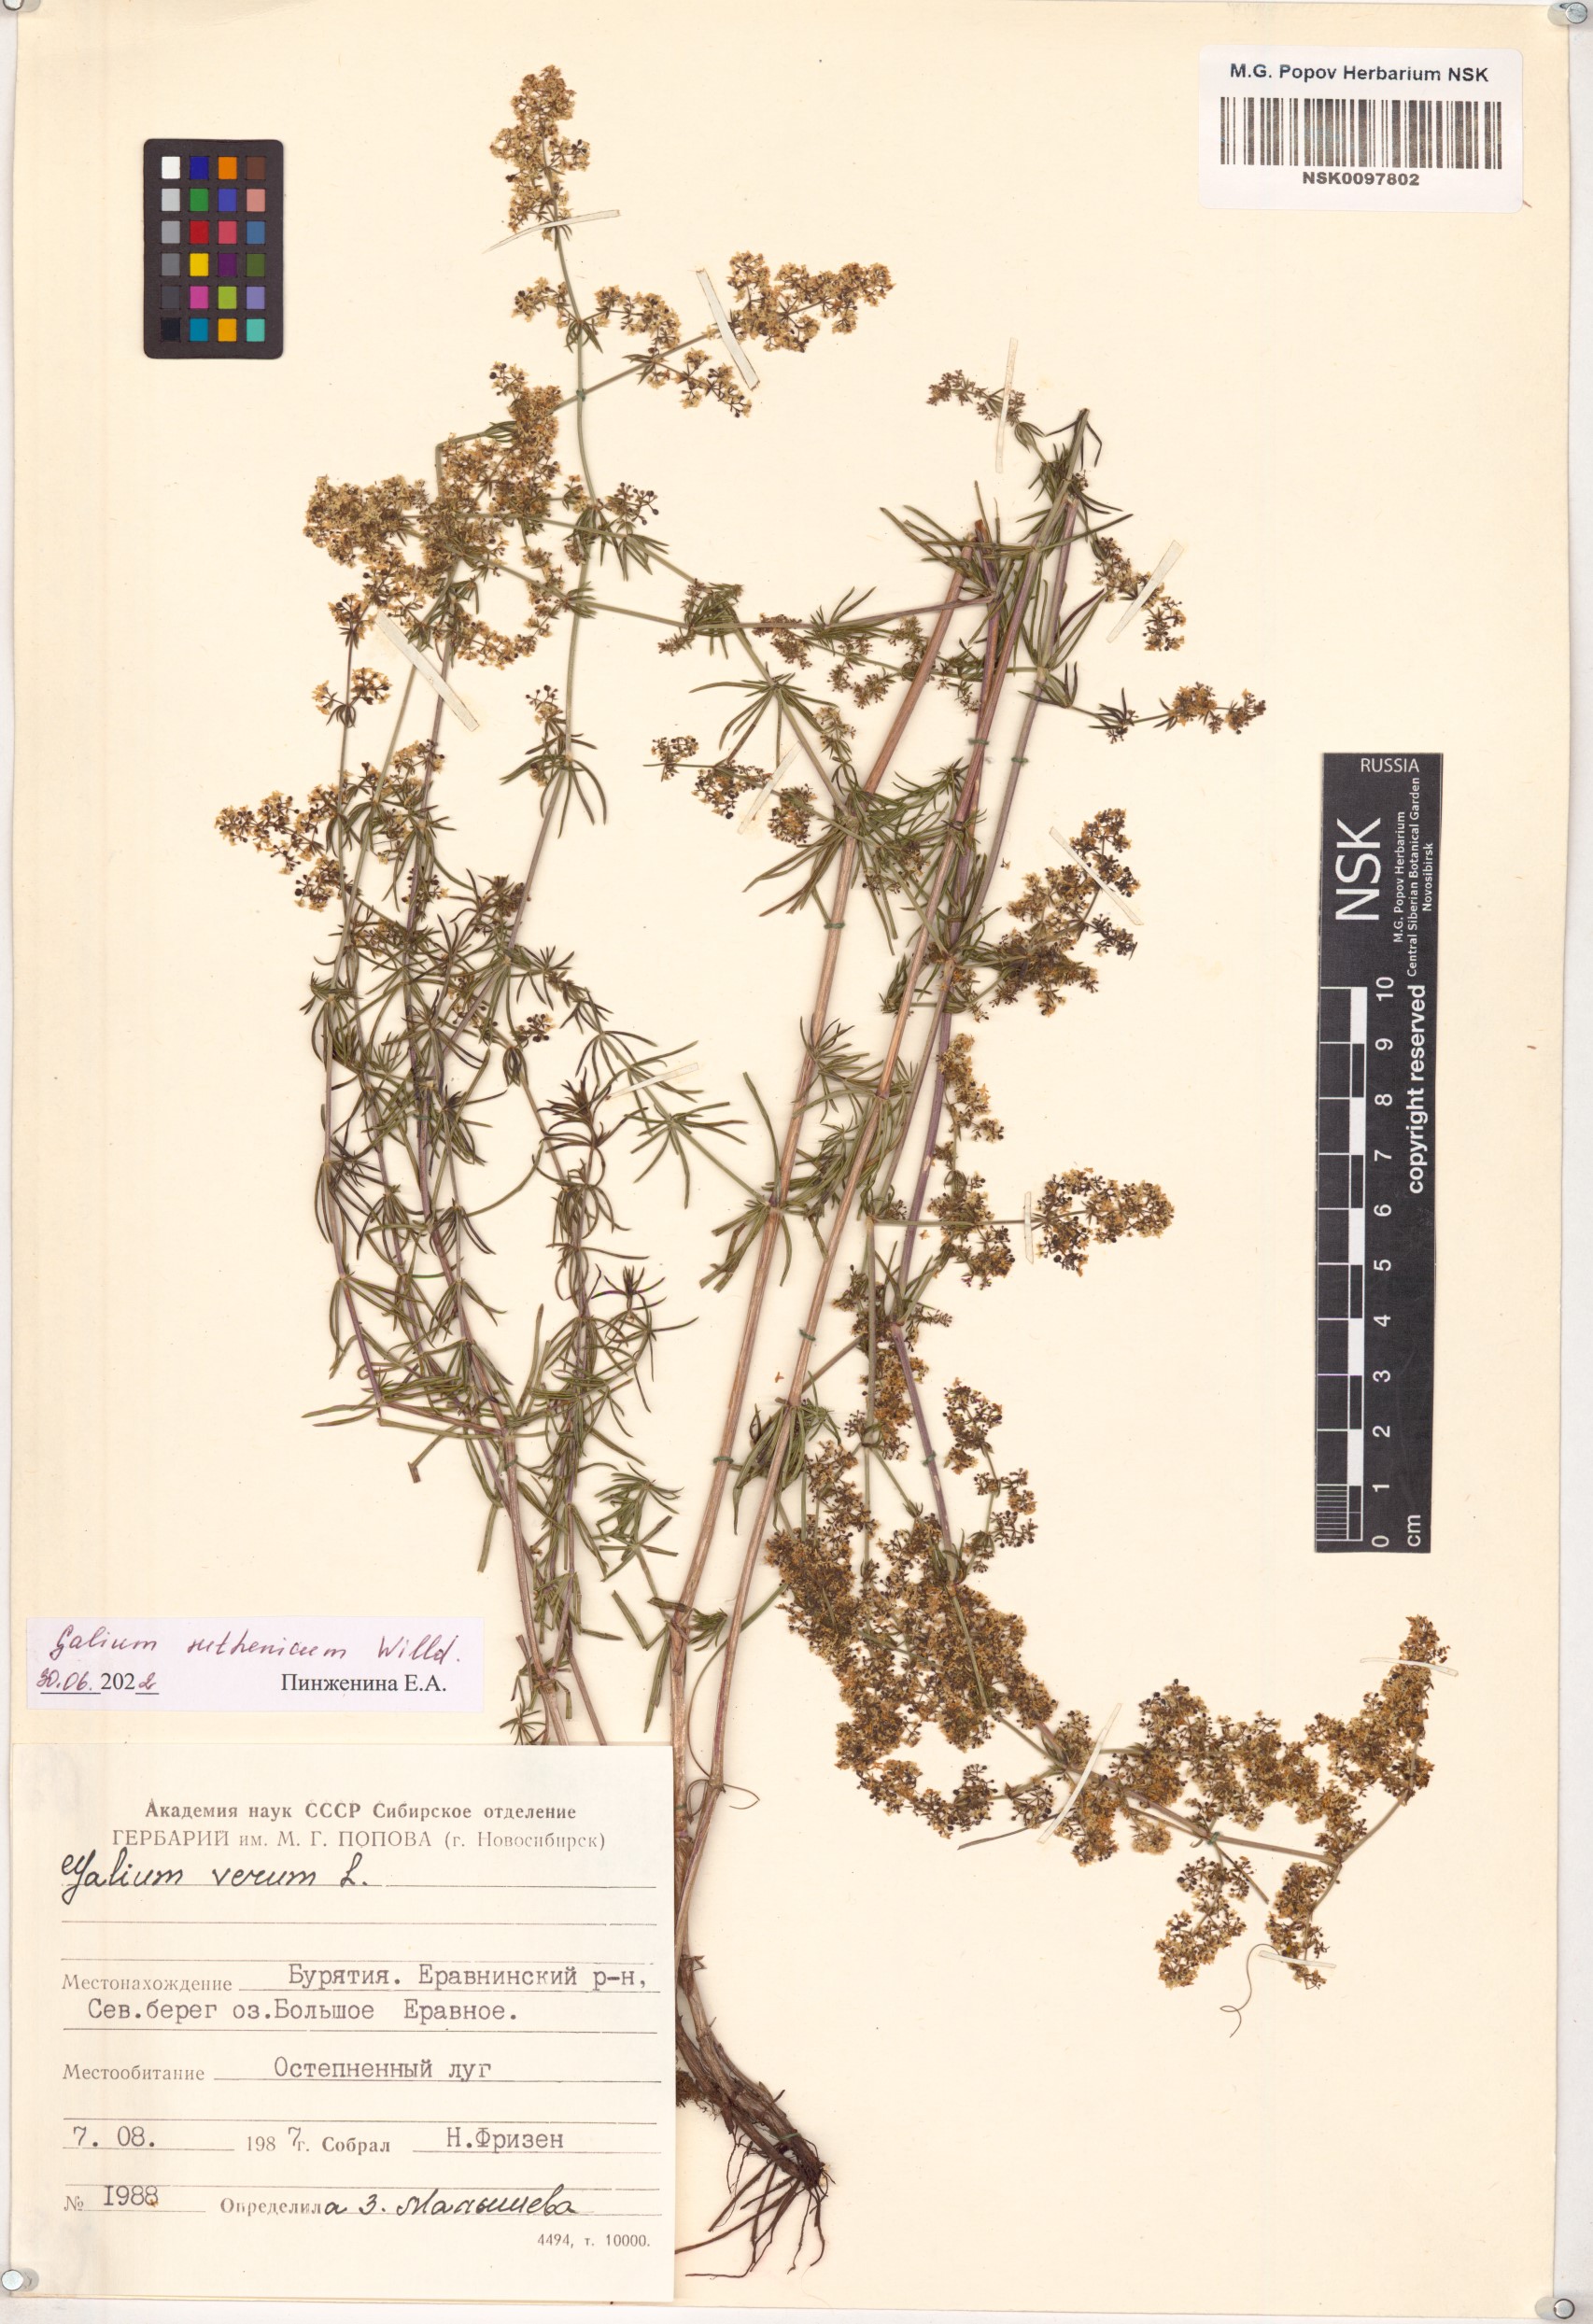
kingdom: Plantae
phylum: Tracheophyta
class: Magnoliopsida
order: Gentianales
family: Rubiaceae
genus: Galium
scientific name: Galium verum
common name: Lady's bedstraw
